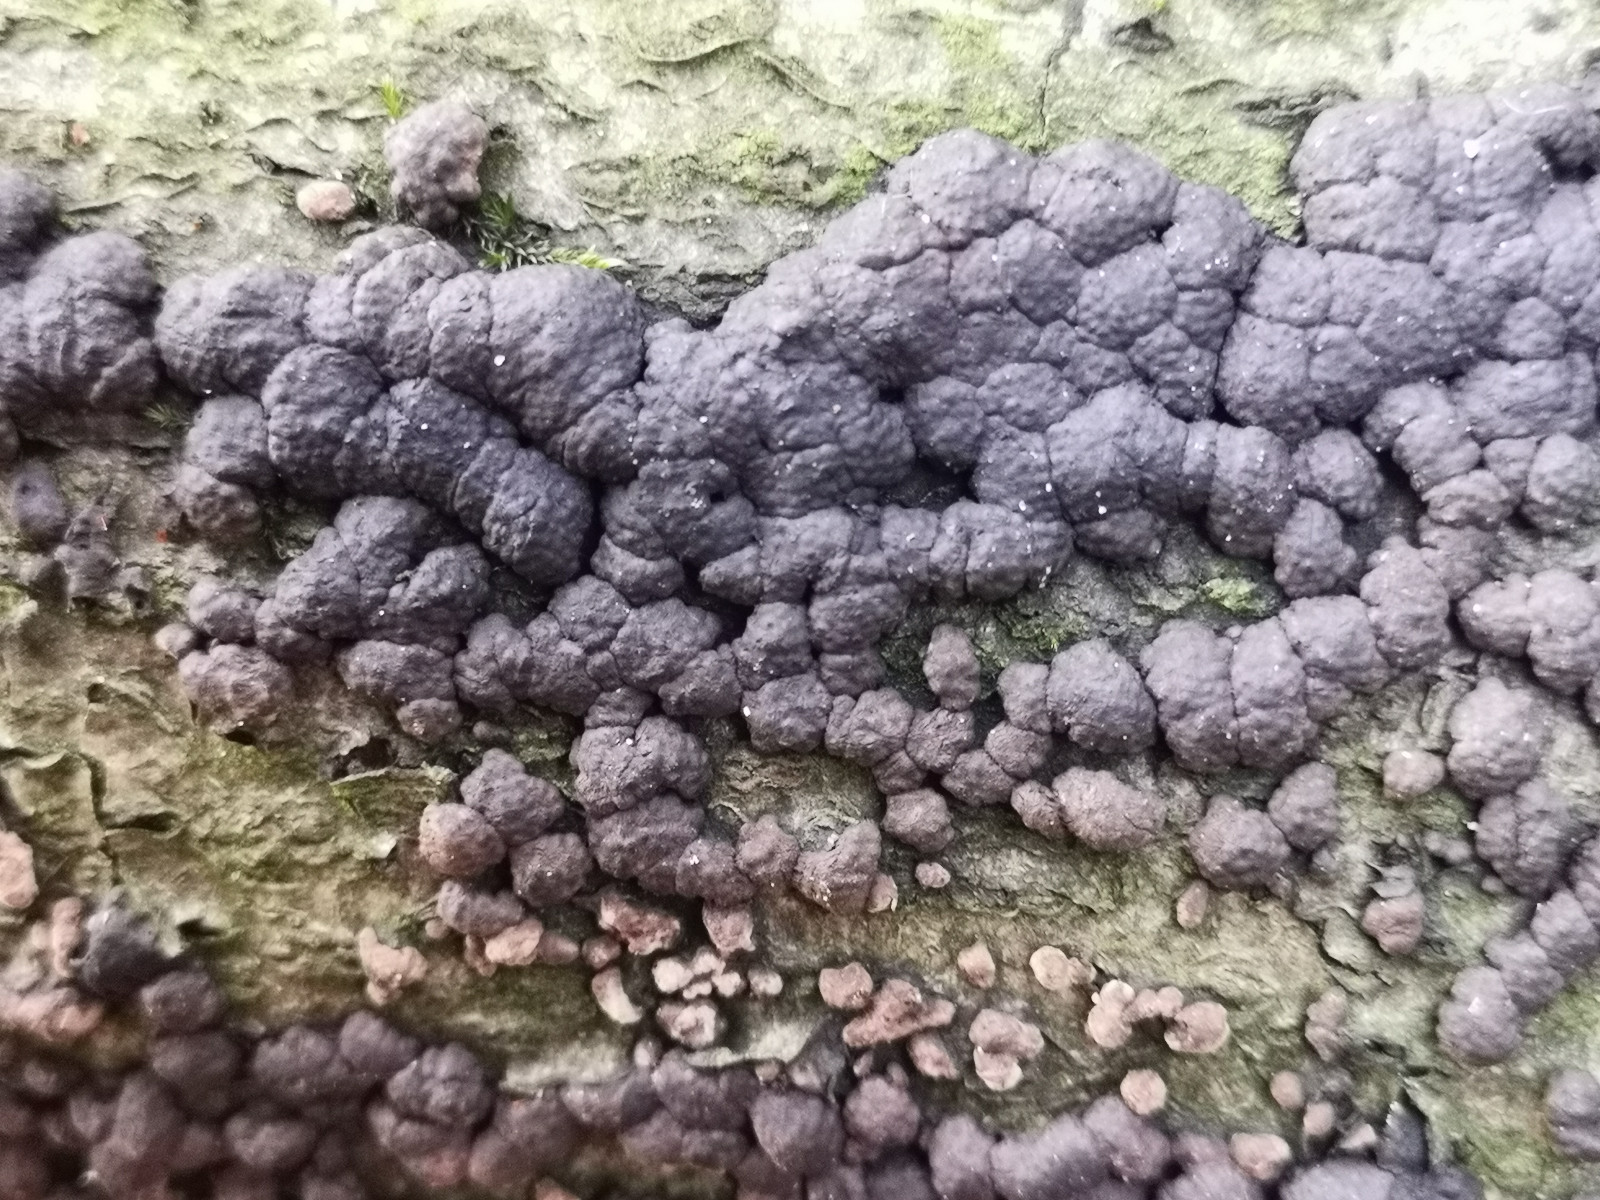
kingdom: Fungi
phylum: Ascomycota
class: Sordariomycetes
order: Xylariales
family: Hypoxylaceae
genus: Jackrogersella
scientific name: Jackrogersella cohaerens
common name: sammenflydende kulbær
